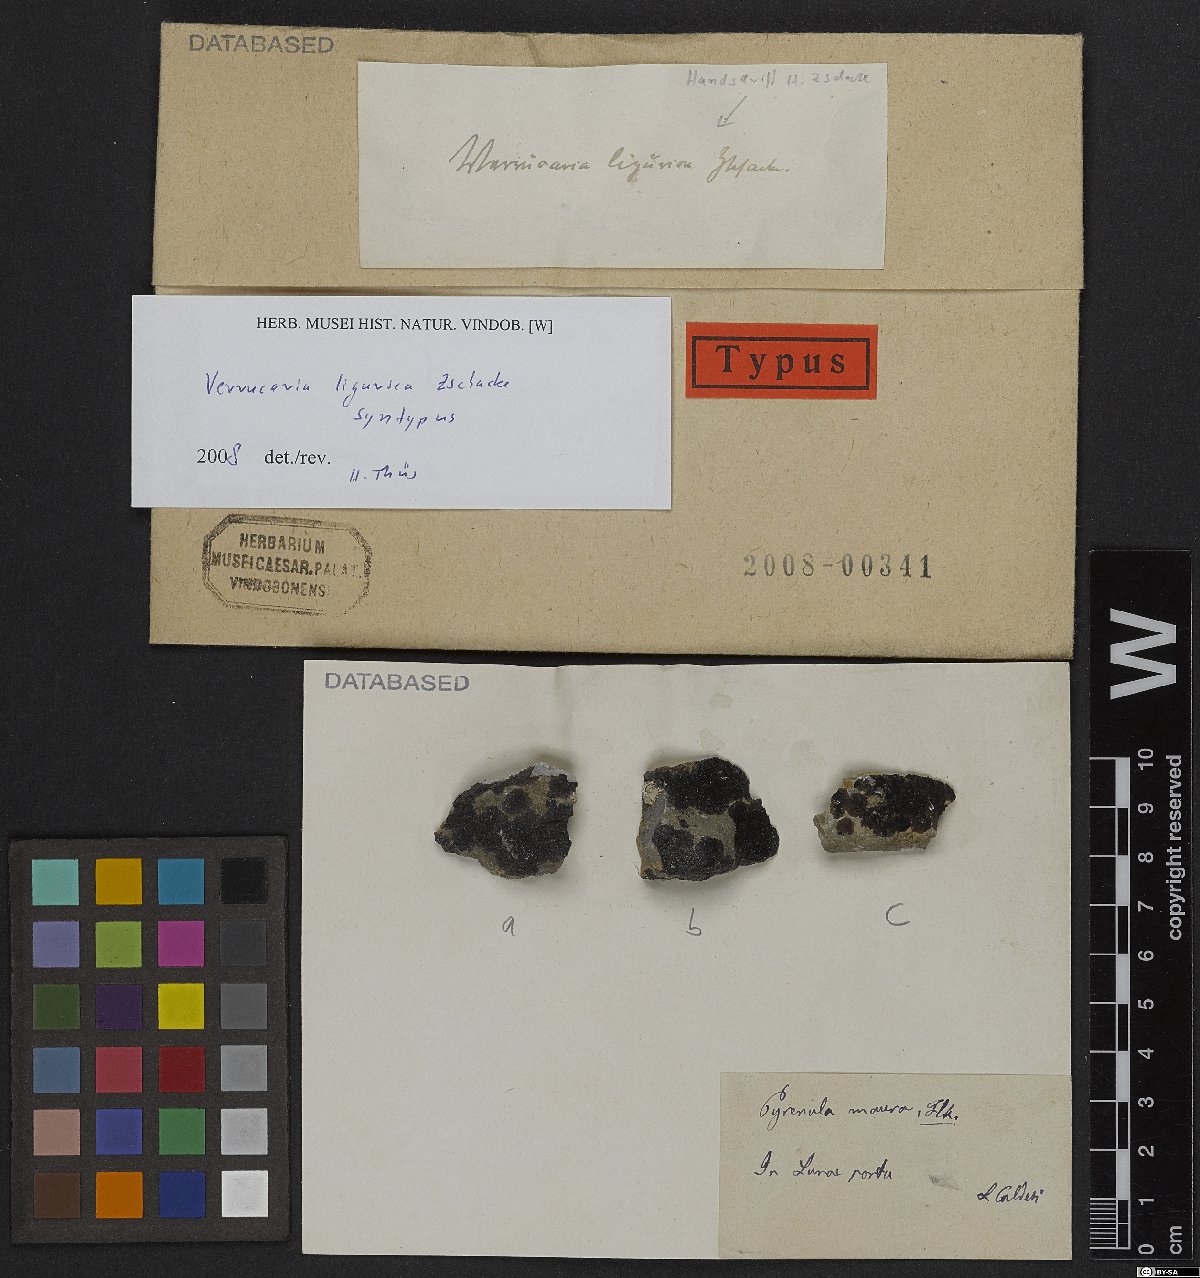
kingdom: Fungi
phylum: Ascomycota
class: Eurotiomycetes
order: Verrucariales
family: Verrucariaceae
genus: Verrucaria
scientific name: Verrucaria ligurica
